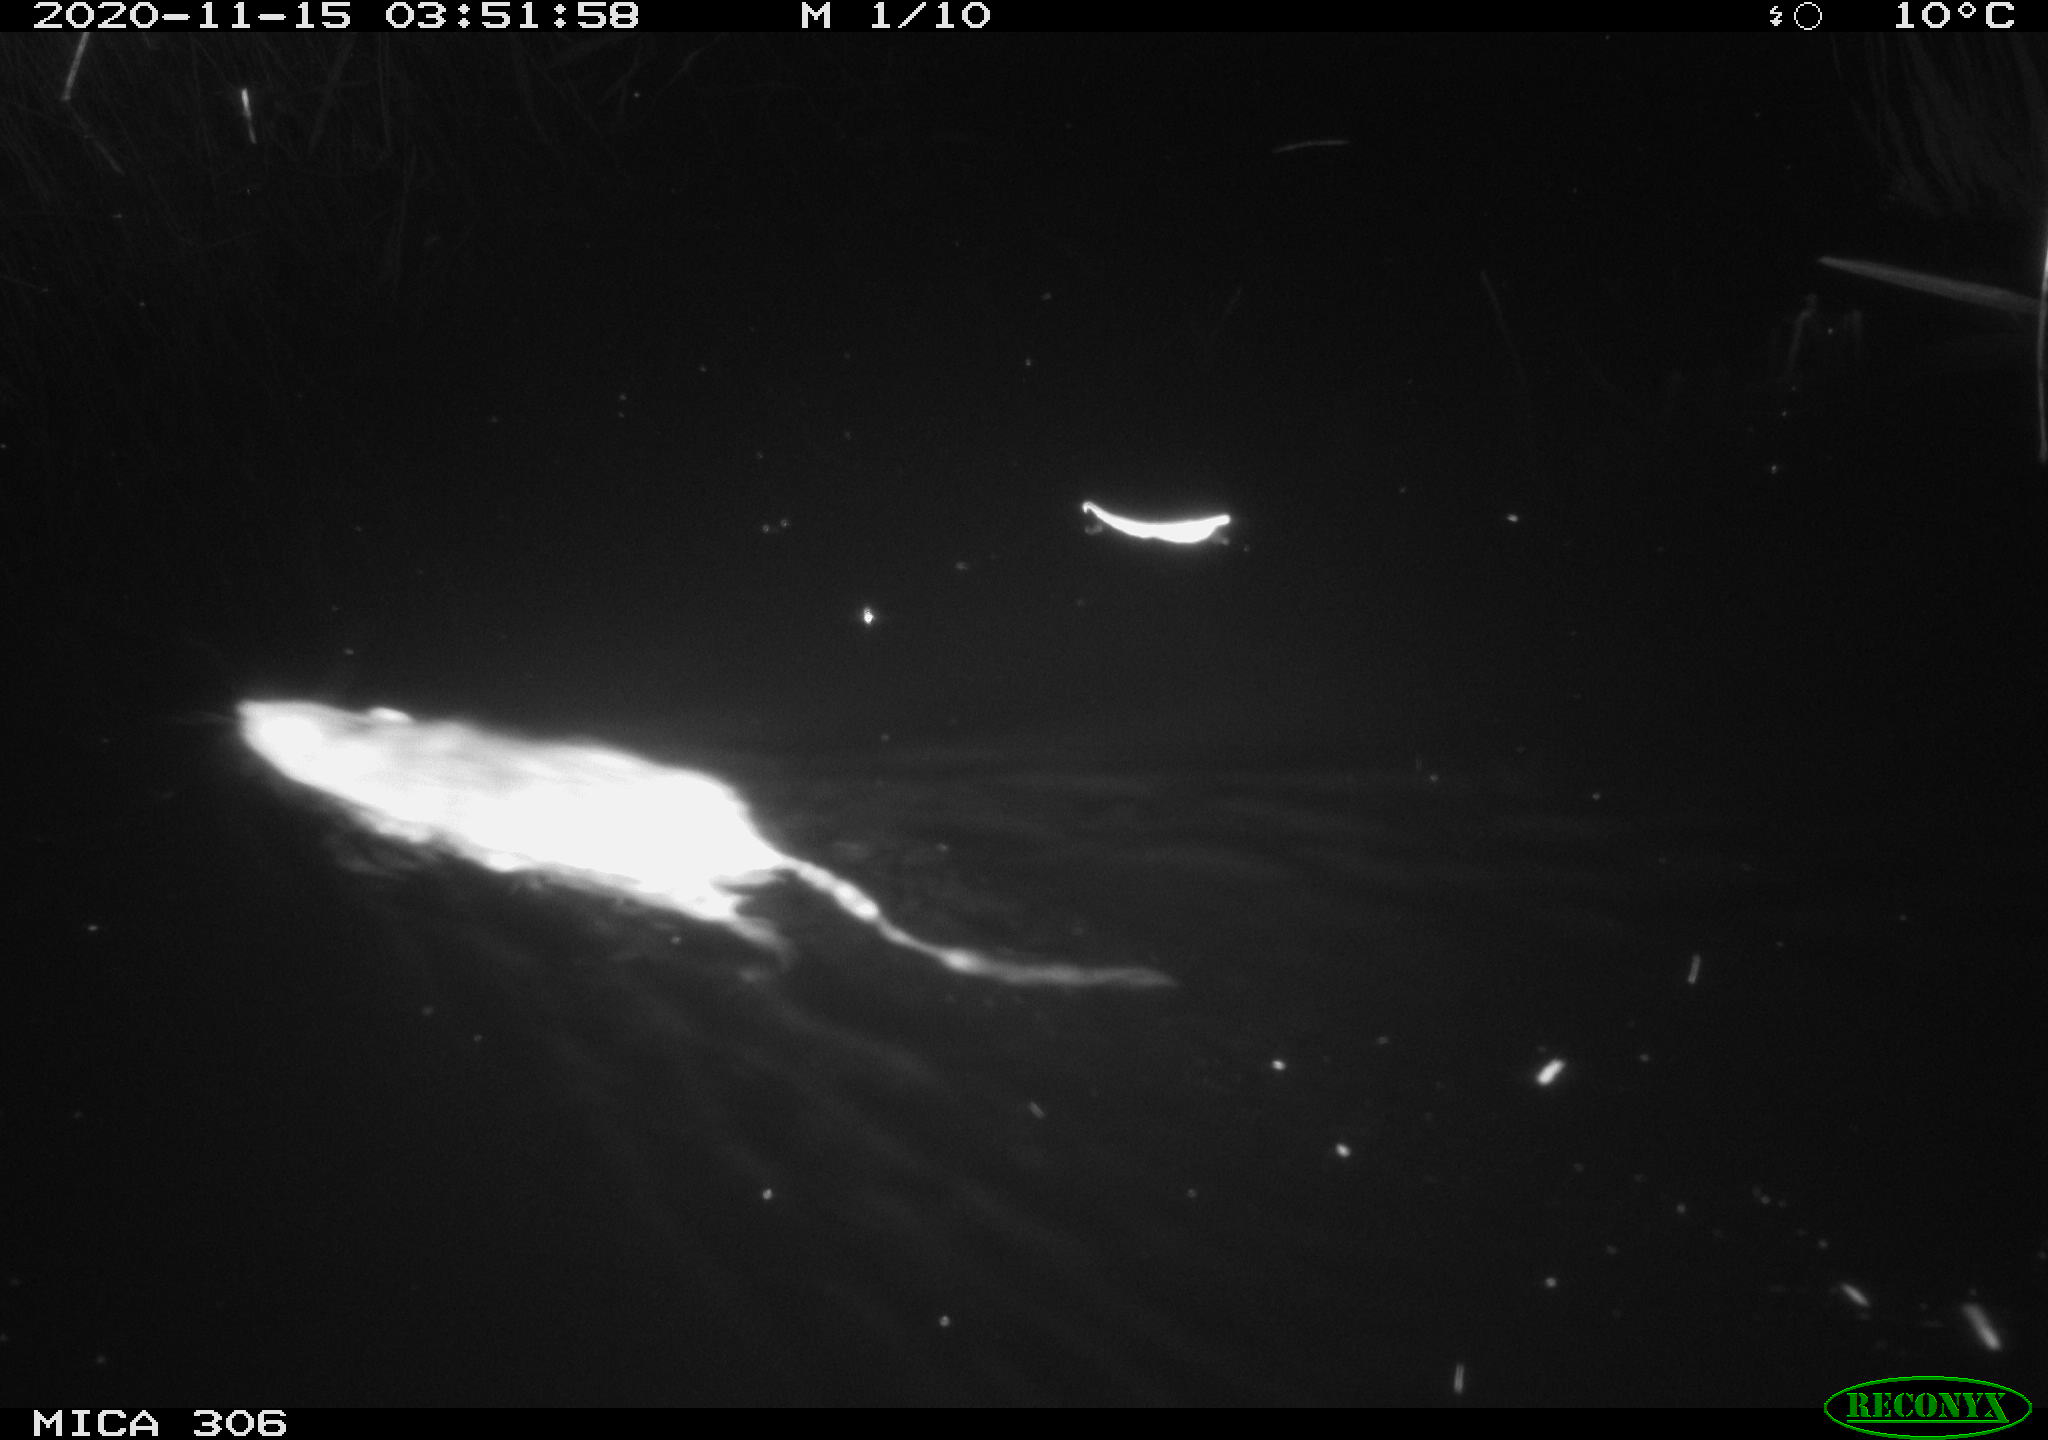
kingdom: Animalia
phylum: Chordata
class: Mammalia
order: Rodentia
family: Muridae
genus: Rattus
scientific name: Rattus norvegicus
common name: Brown rat
